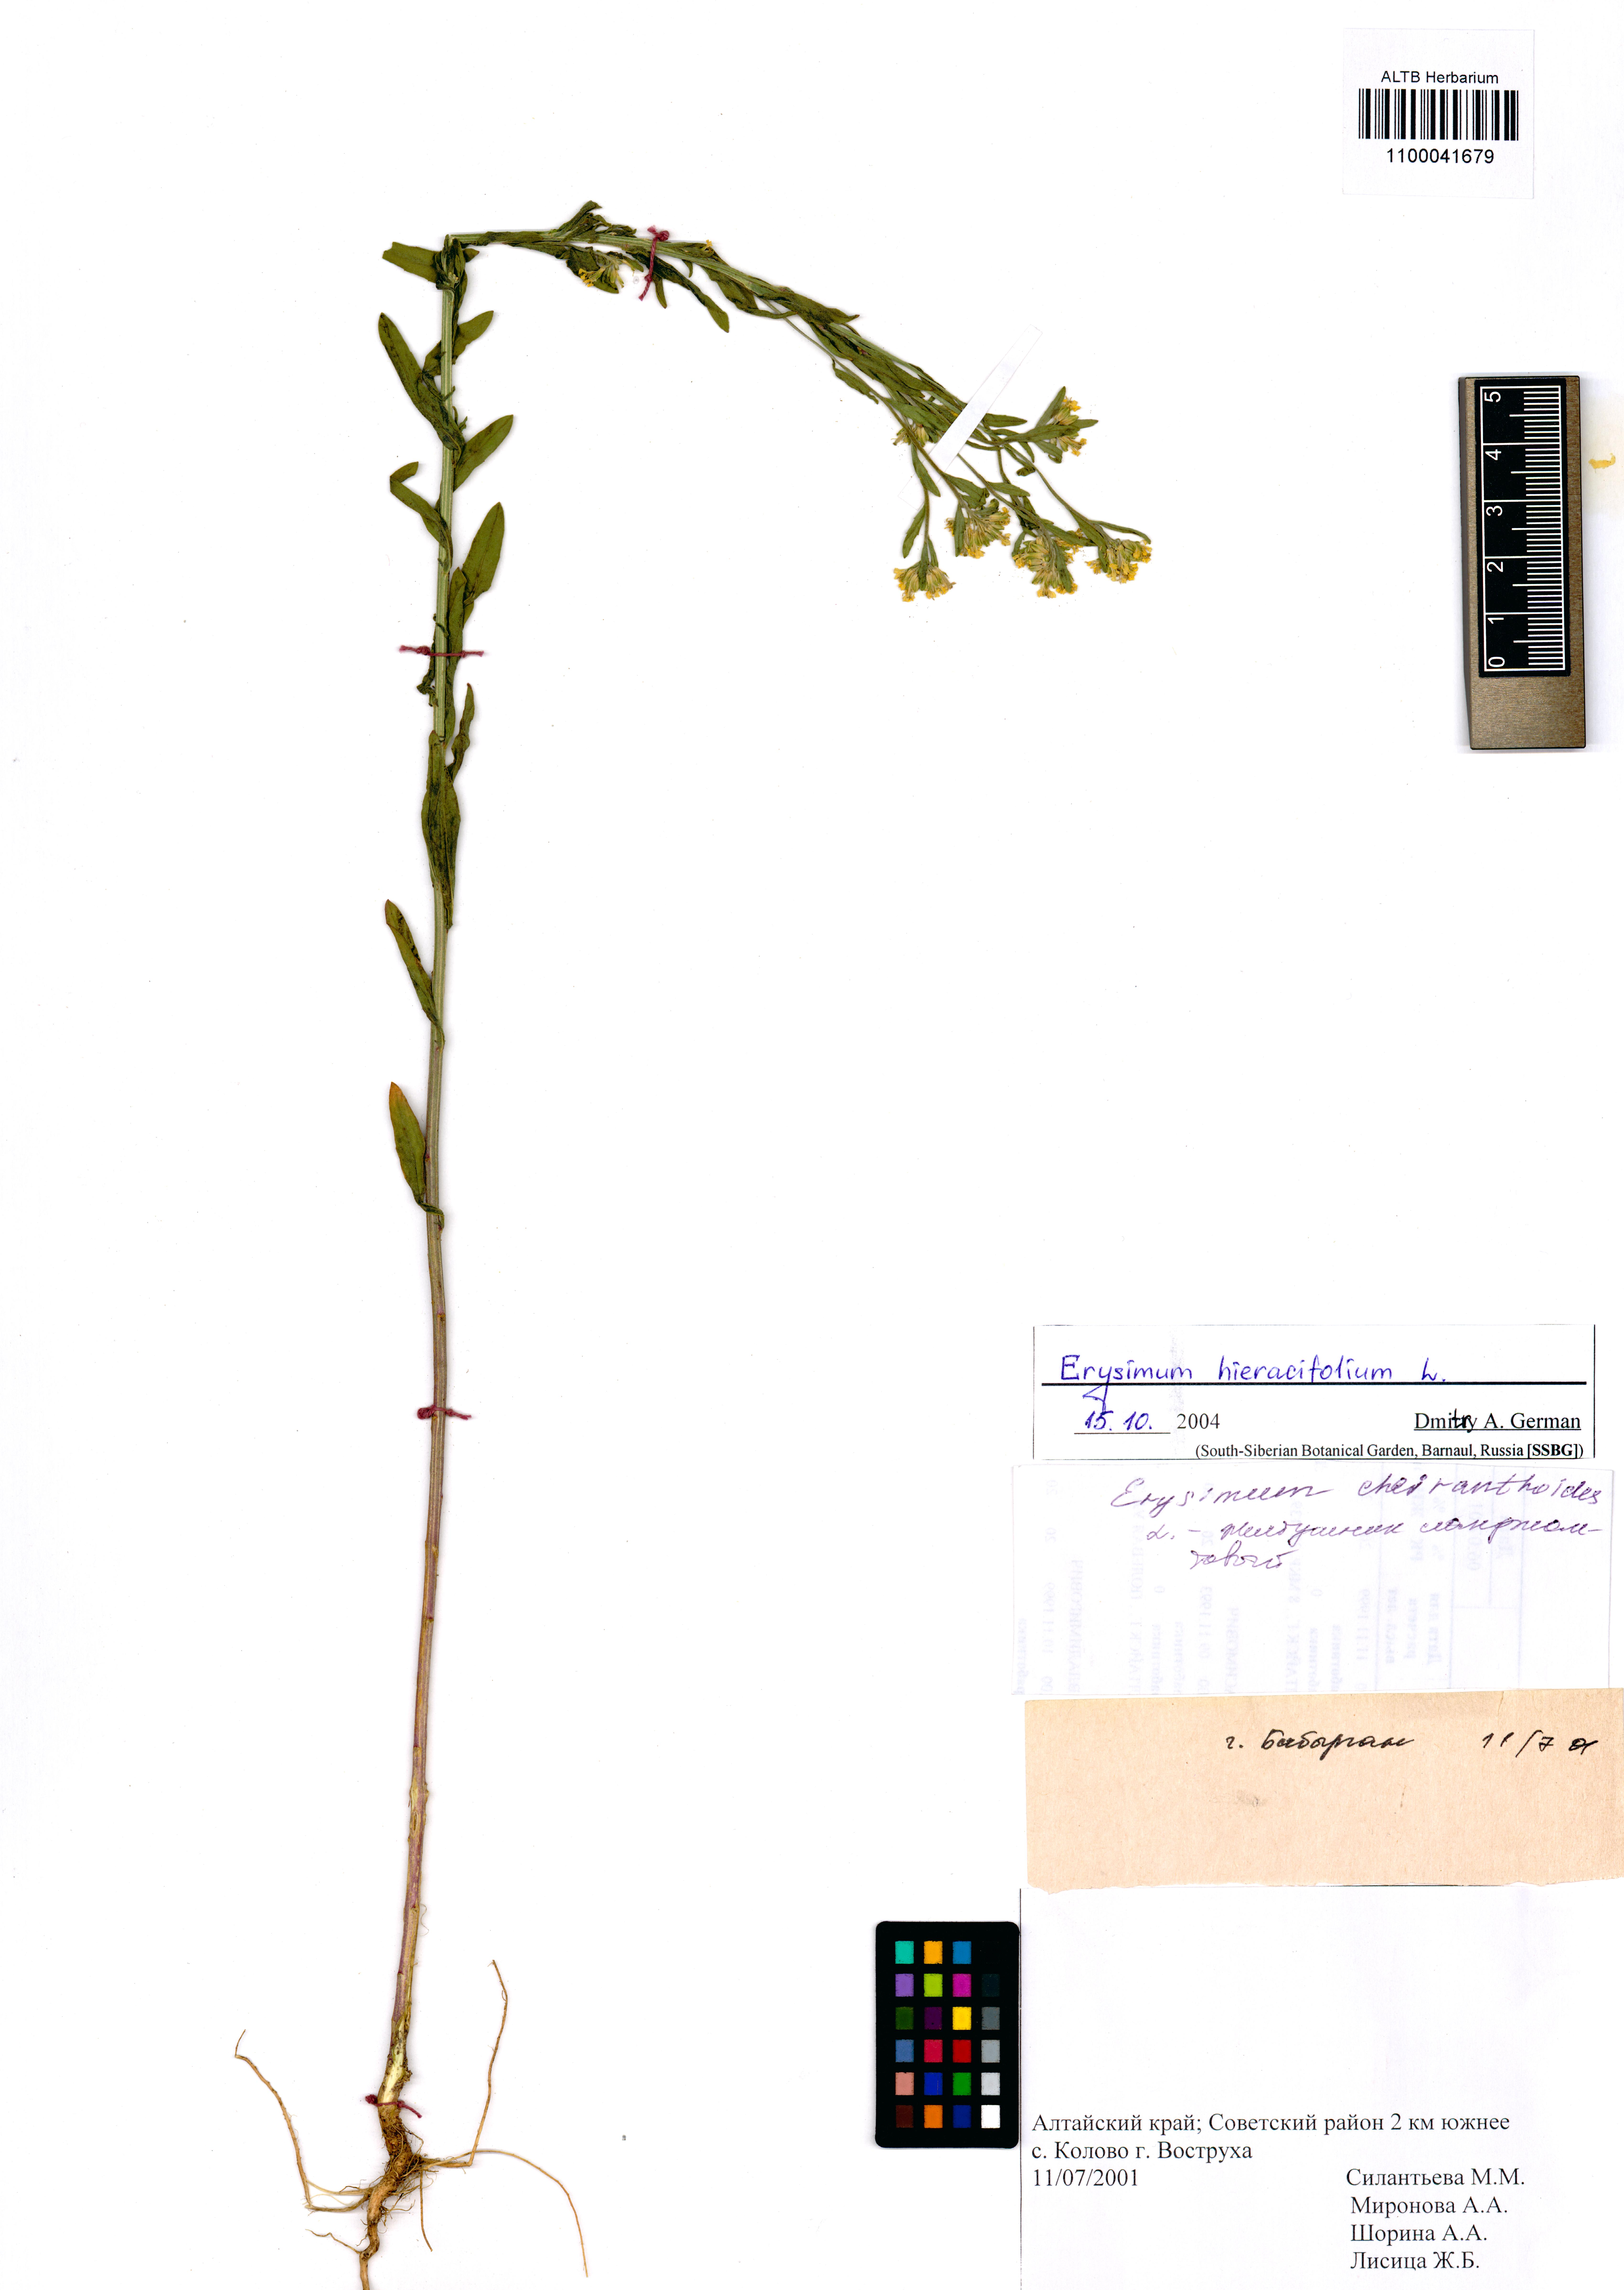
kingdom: Plantae
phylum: Tracheophyta
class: Magnoliopsida
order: Brassicales
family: Brassicaceae
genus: Erysimum
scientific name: Erysimum hieraciifolium
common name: European wallflower
